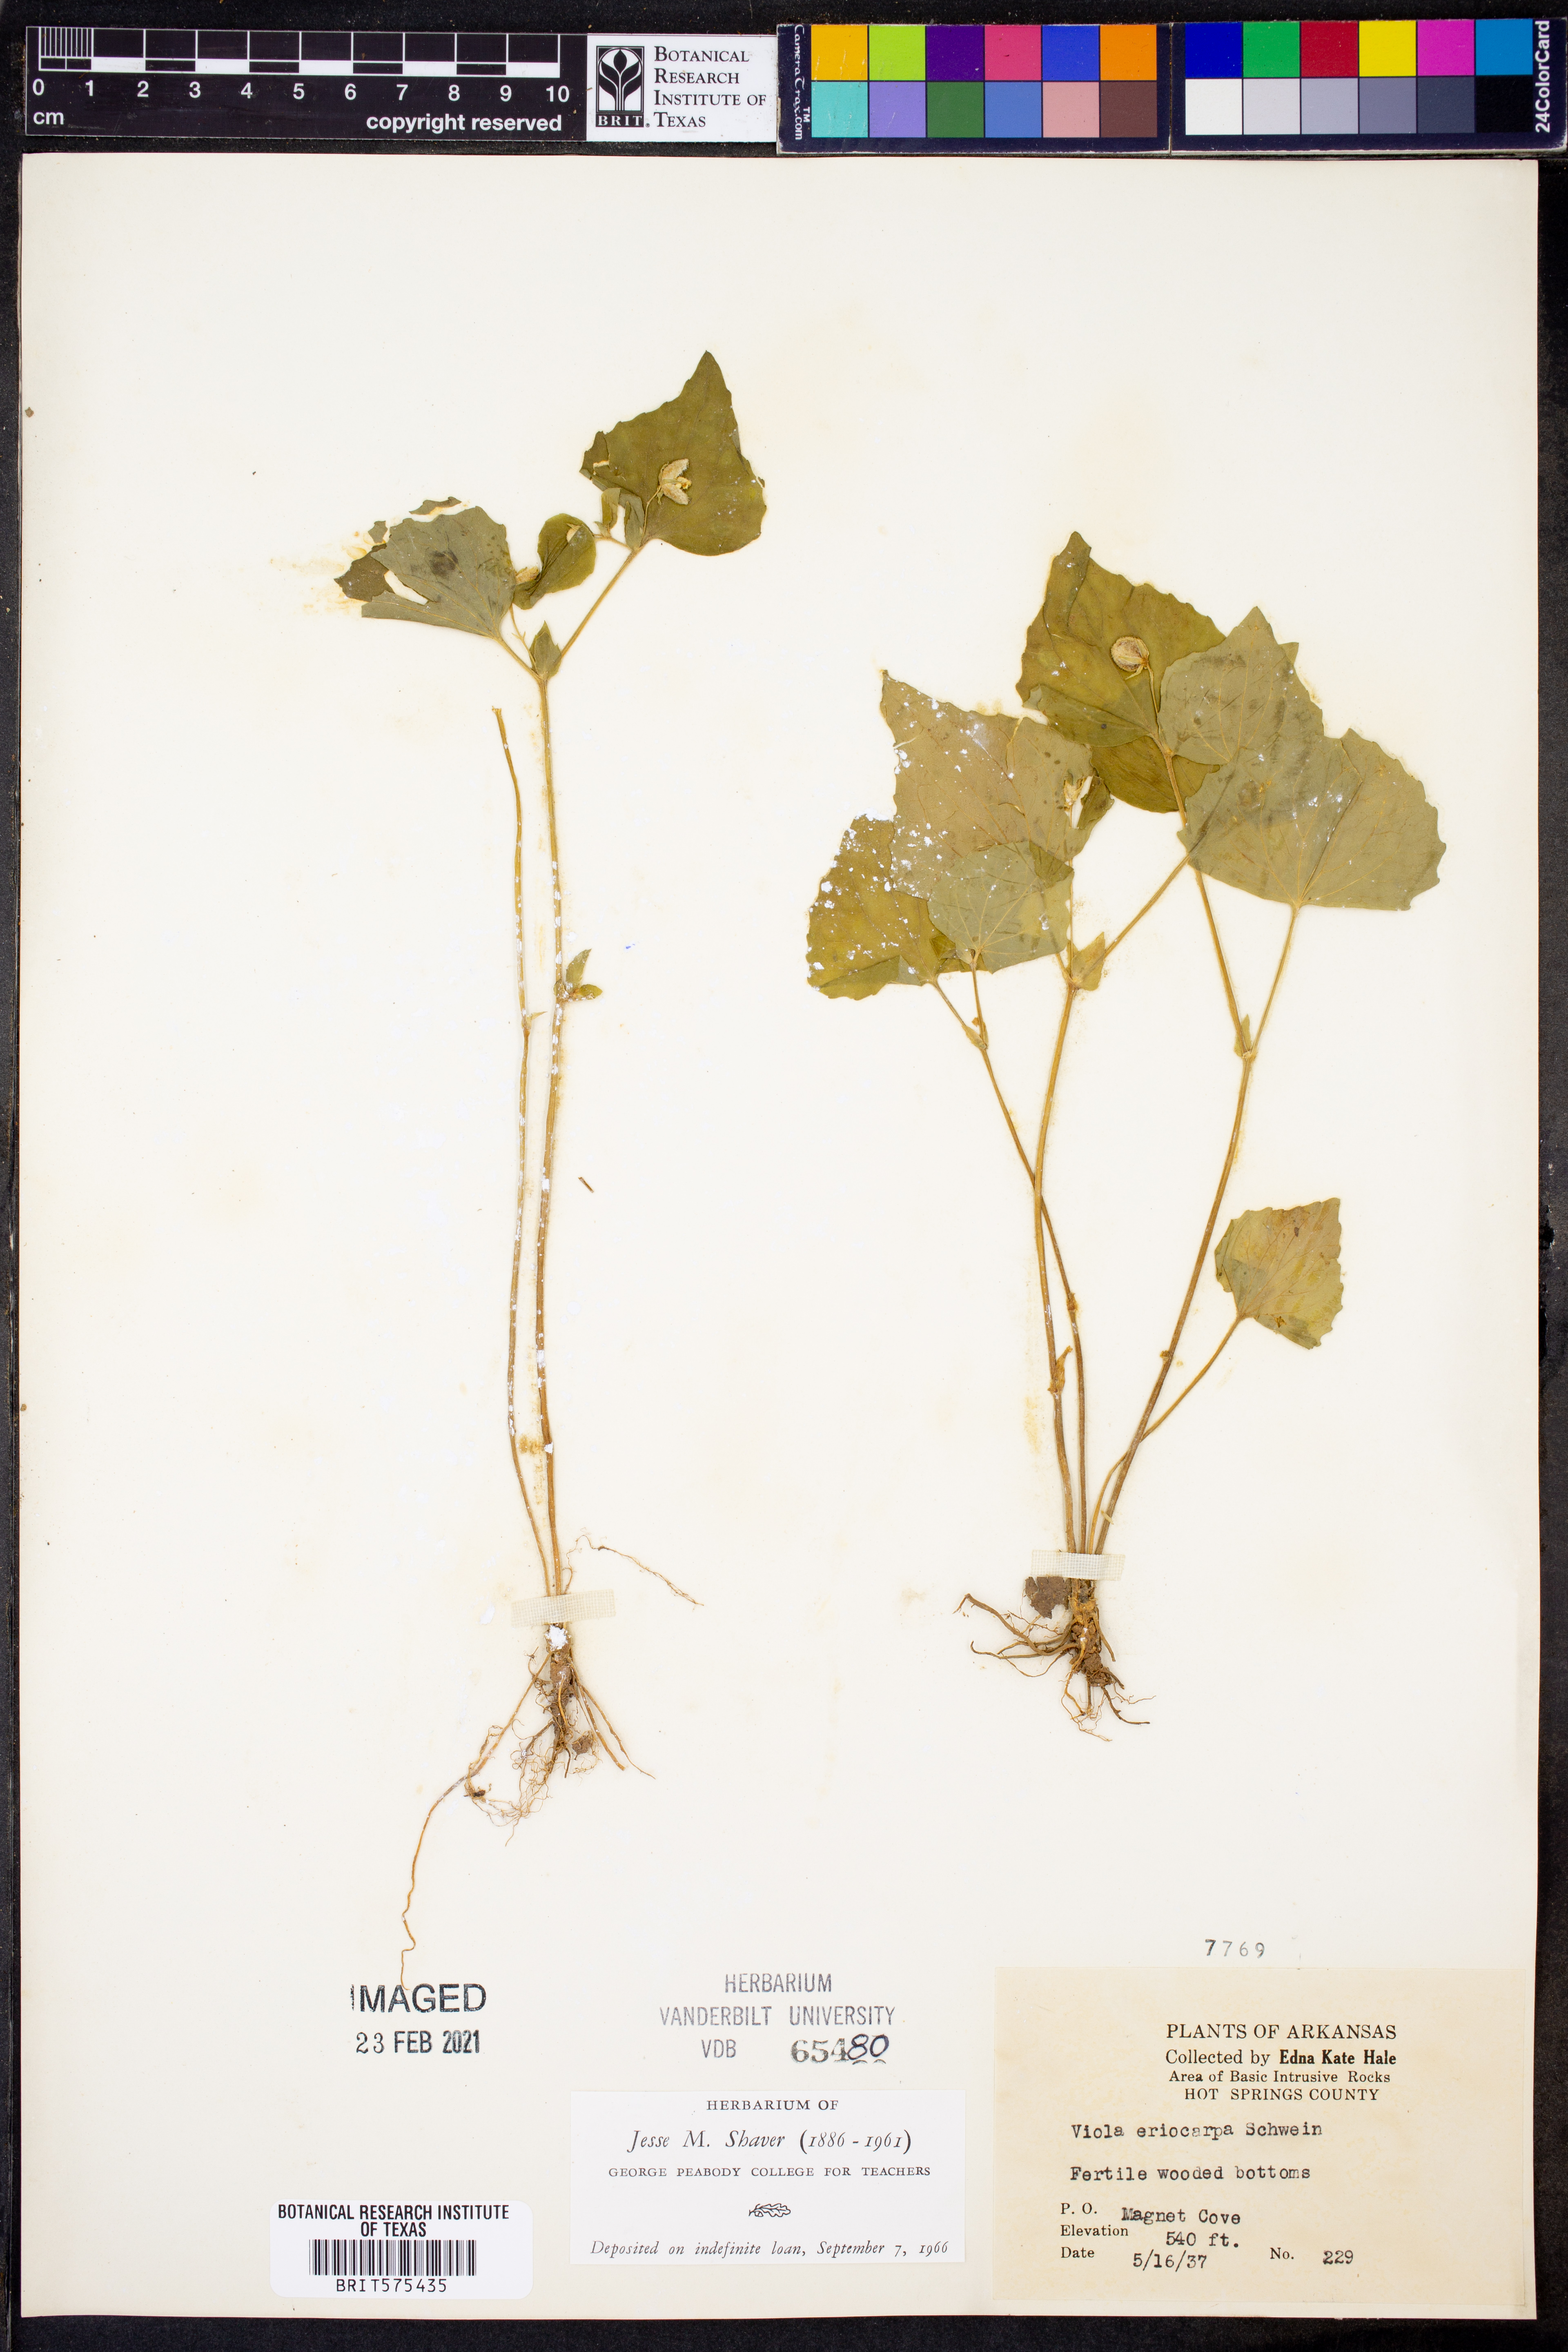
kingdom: Plantae
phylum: Tracheophyta
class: Magnoliopsida
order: Malpighiales
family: Violaceae
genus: Viola
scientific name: Viola eriocarpa
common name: Smooth yellow violet
